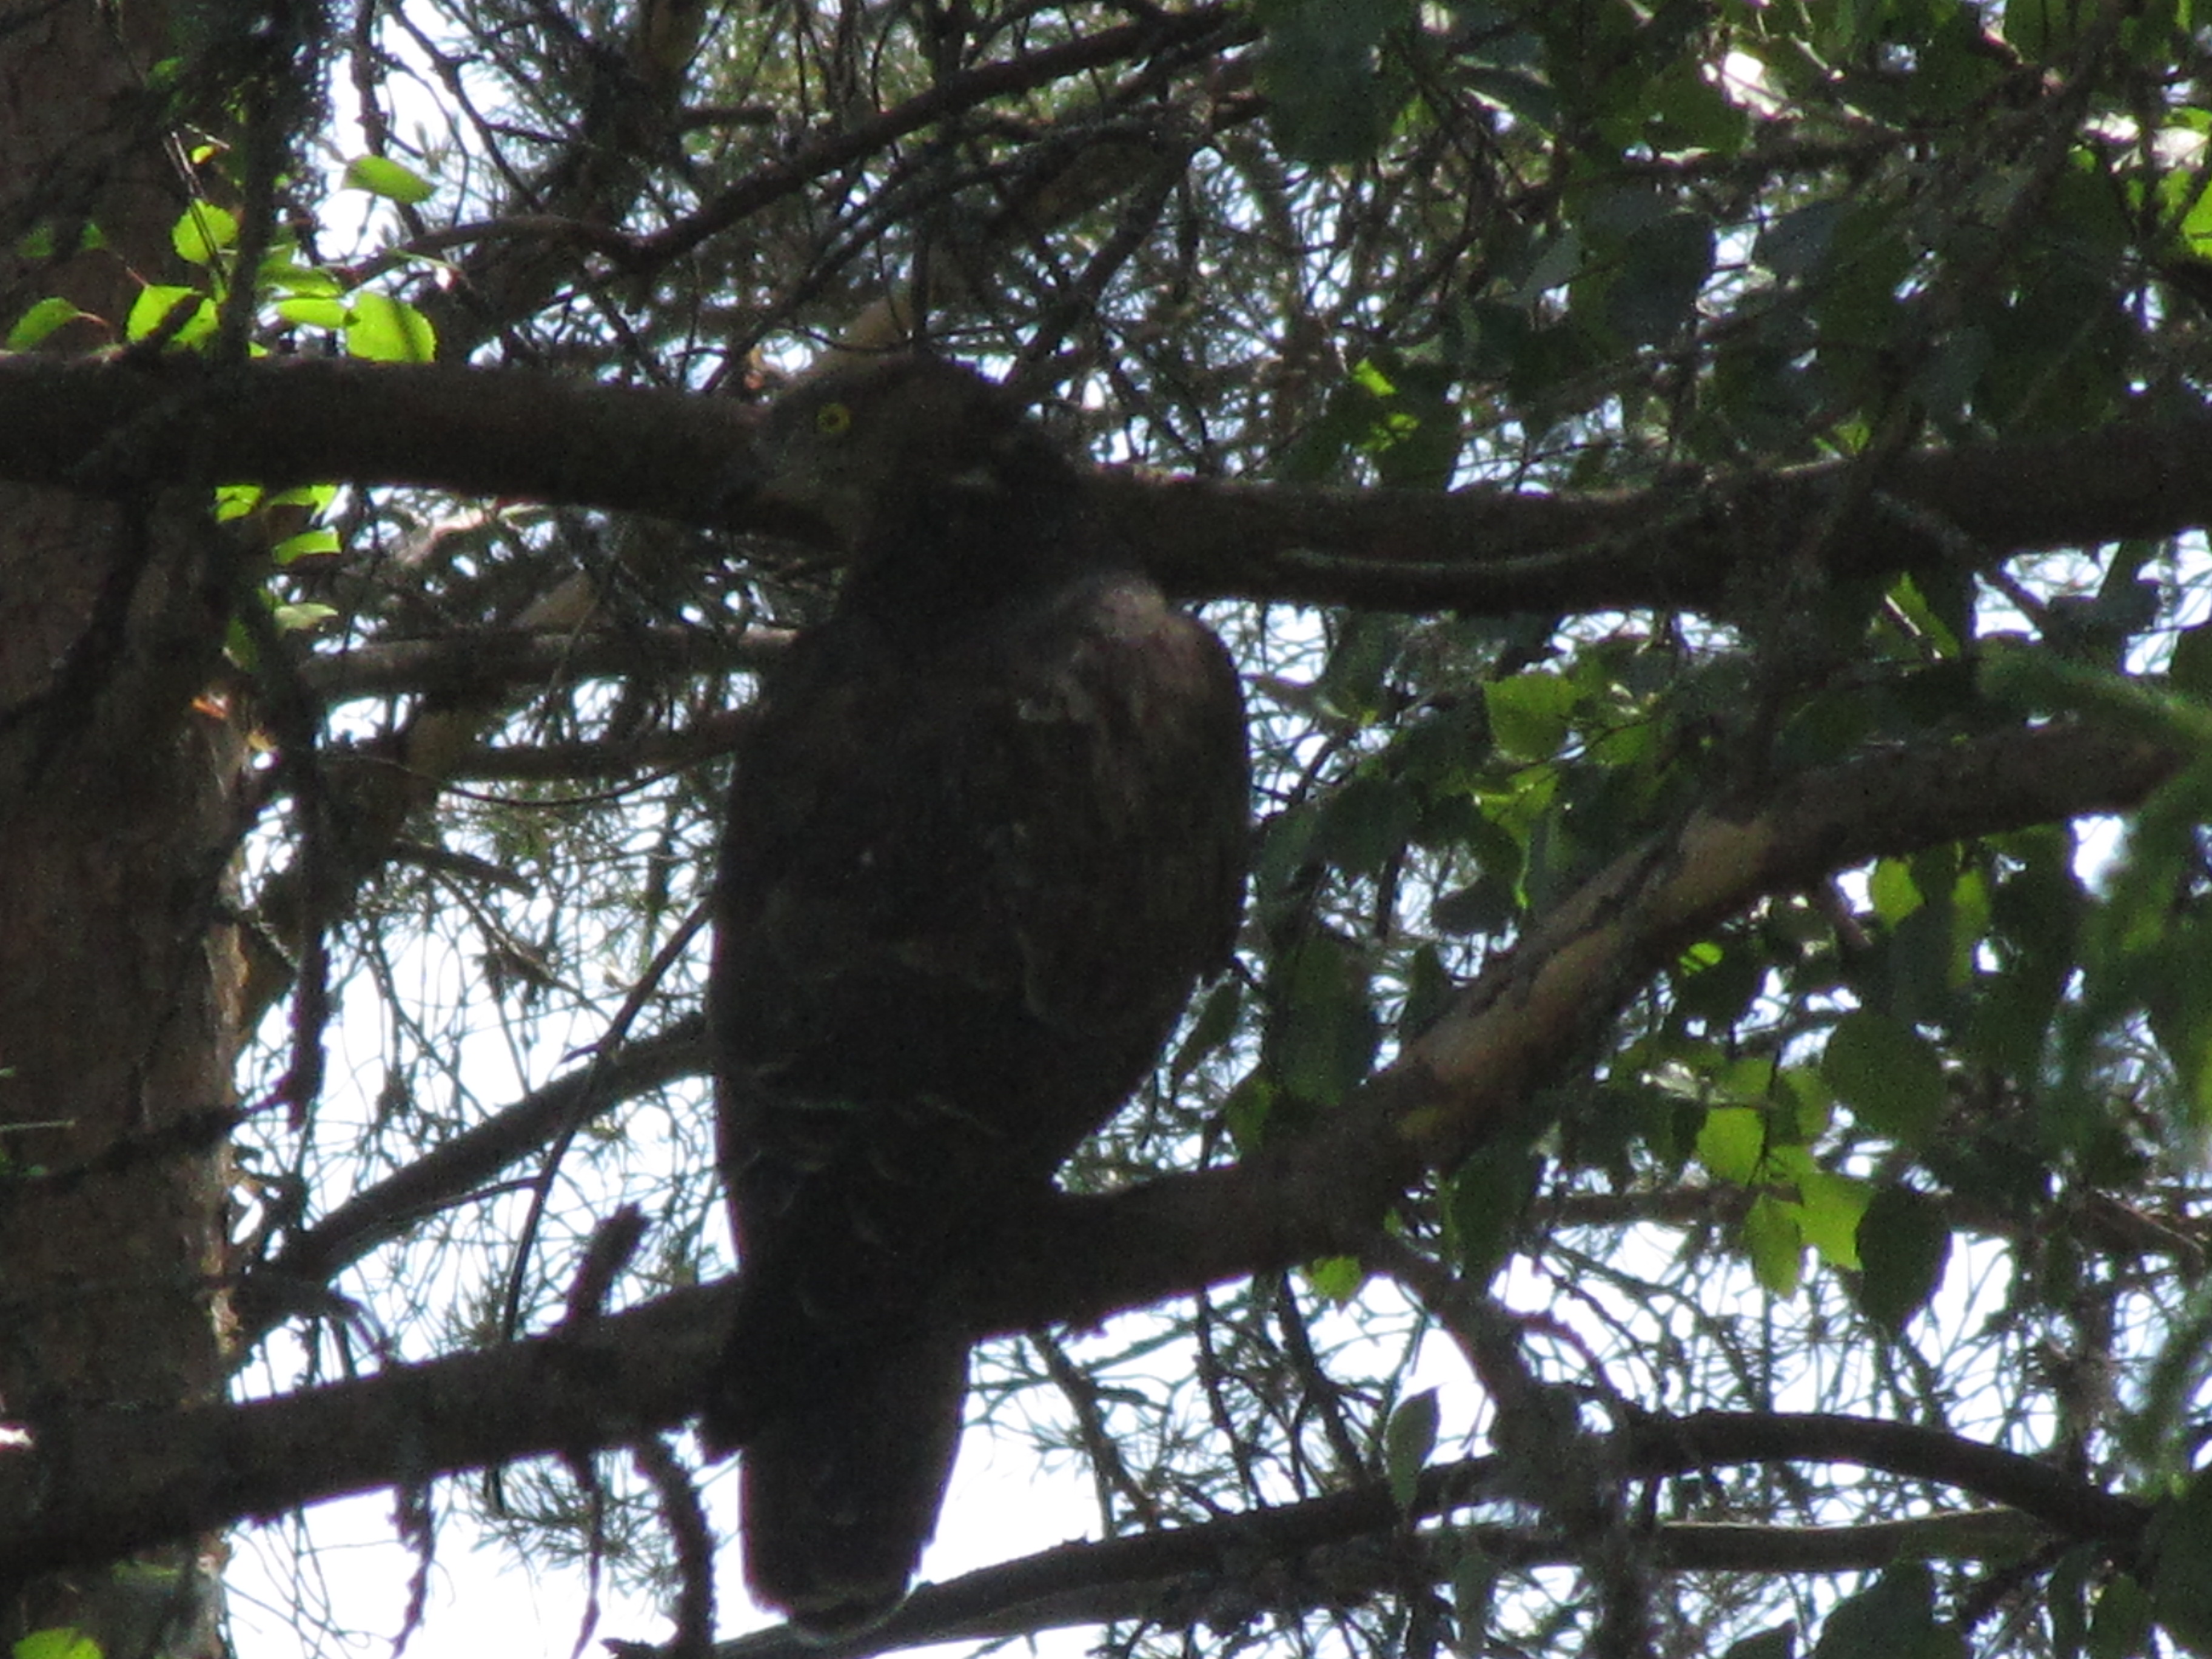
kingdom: Animalia
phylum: Chordata
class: Aves
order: Accipitriformes
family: Accipitridae
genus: Pernis
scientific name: Pernis apivorus
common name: European honey buzzard
